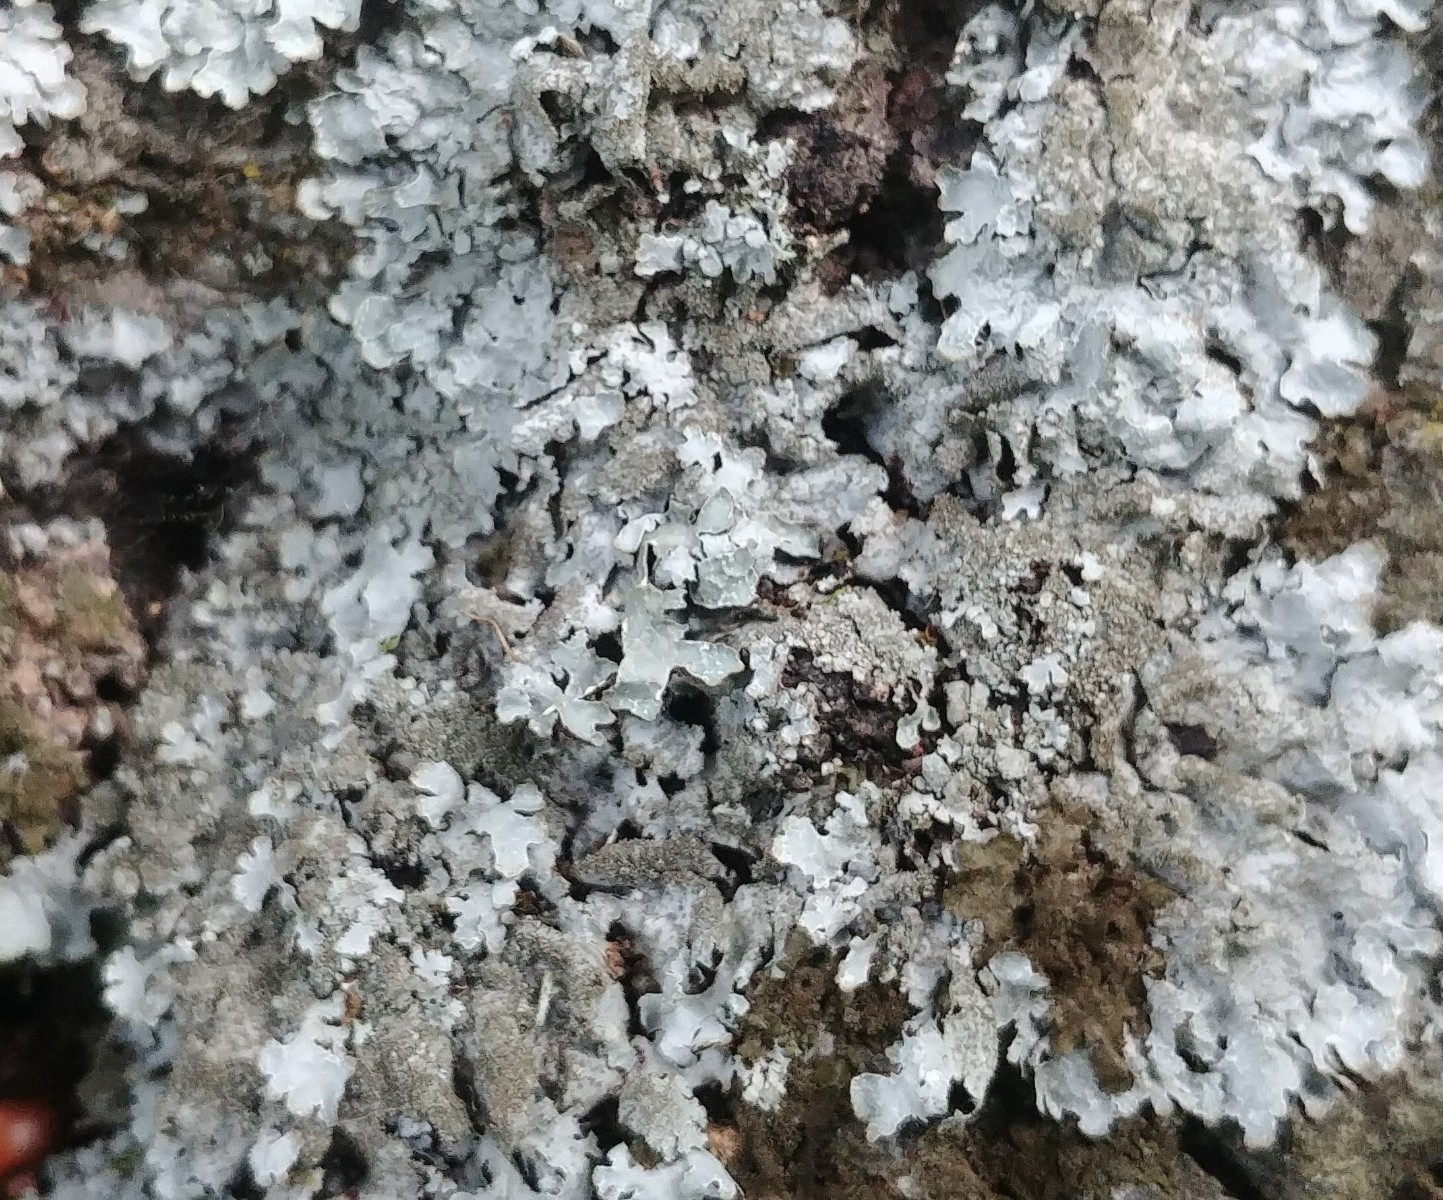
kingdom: Fungi
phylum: Ascomycota
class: Lecanoromycetes
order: Lecanorales
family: Parmeliaceae
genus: Parmelia
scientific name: Parmelia sulcata
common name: rynket skållav
